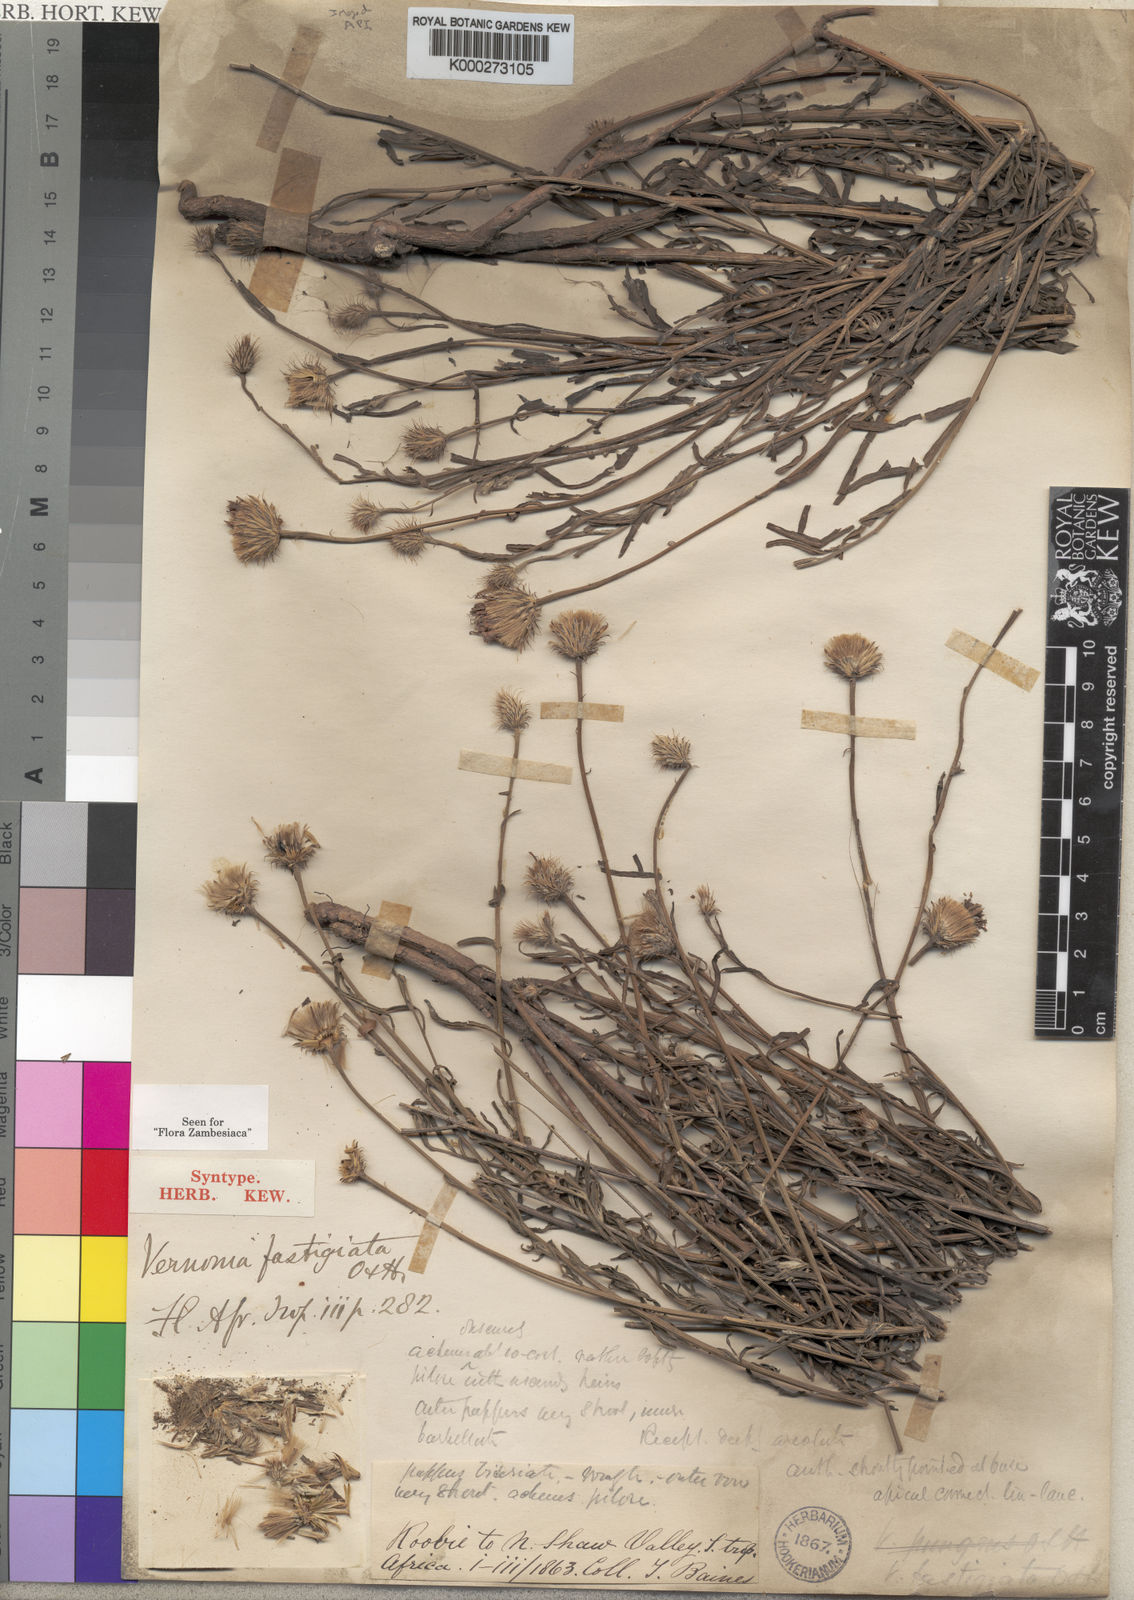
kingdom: Plantae
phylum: Tracheophyta
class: Magnoliopsida
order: Asterales
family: Asteraceae
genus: Parapolydora
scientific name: Parapolydora fastigiata
